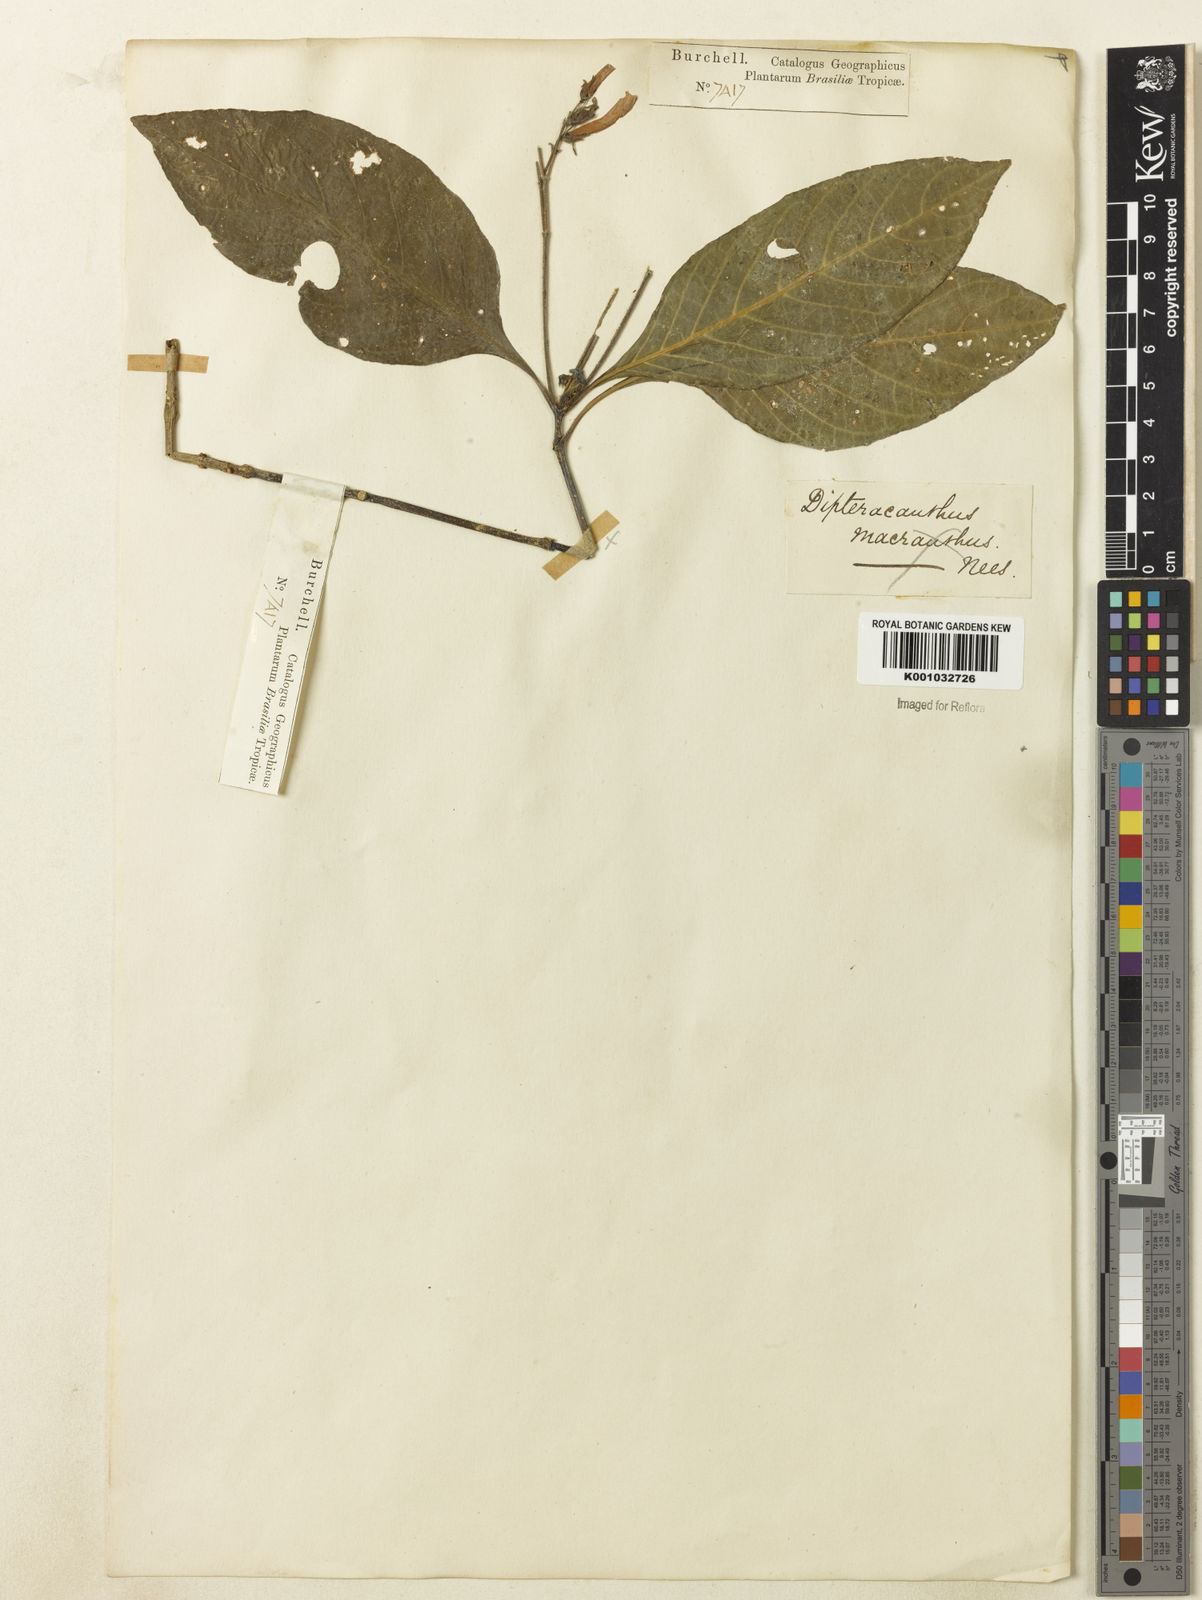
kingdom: Plantae
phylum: Tracheophyta
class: Magnoliopsida
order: Lamiales
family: Acanthaceae
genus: Ruellia
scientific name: Ruellia
